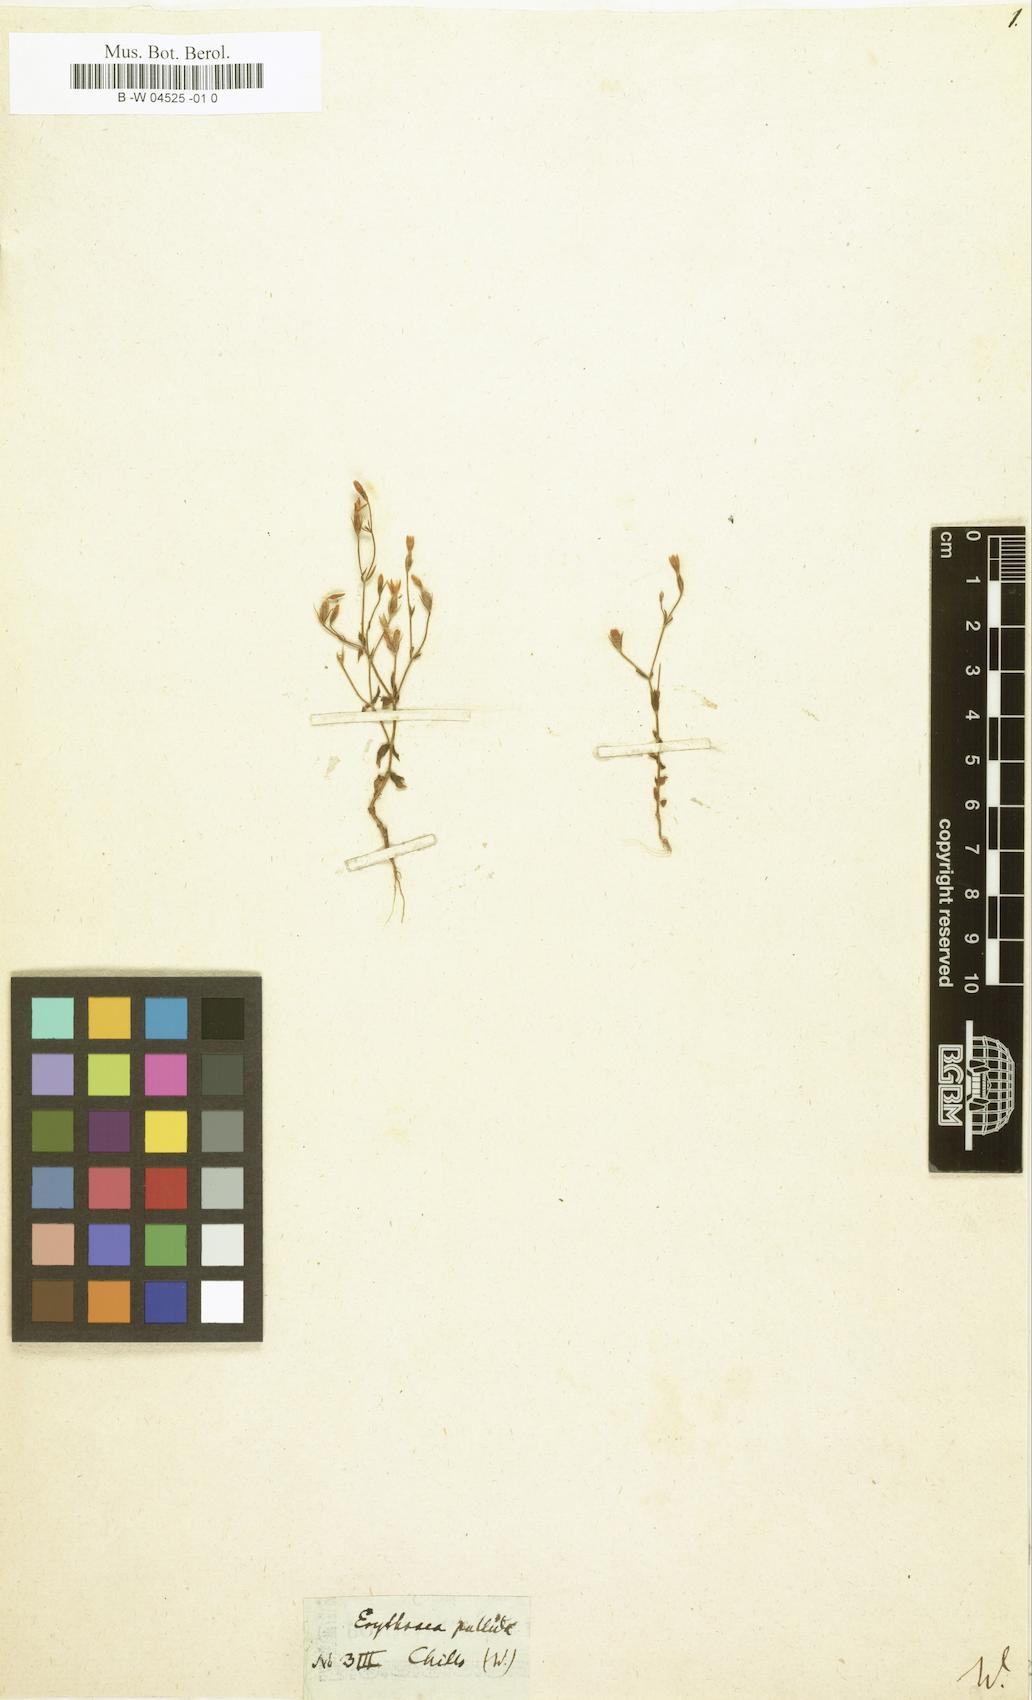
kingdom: Plantae
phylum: Tracheophyta
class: Magnoliopsida
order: Gentianales
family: Gentianaceae
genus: Centaurium
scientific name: Centaurium cachanlahuen
